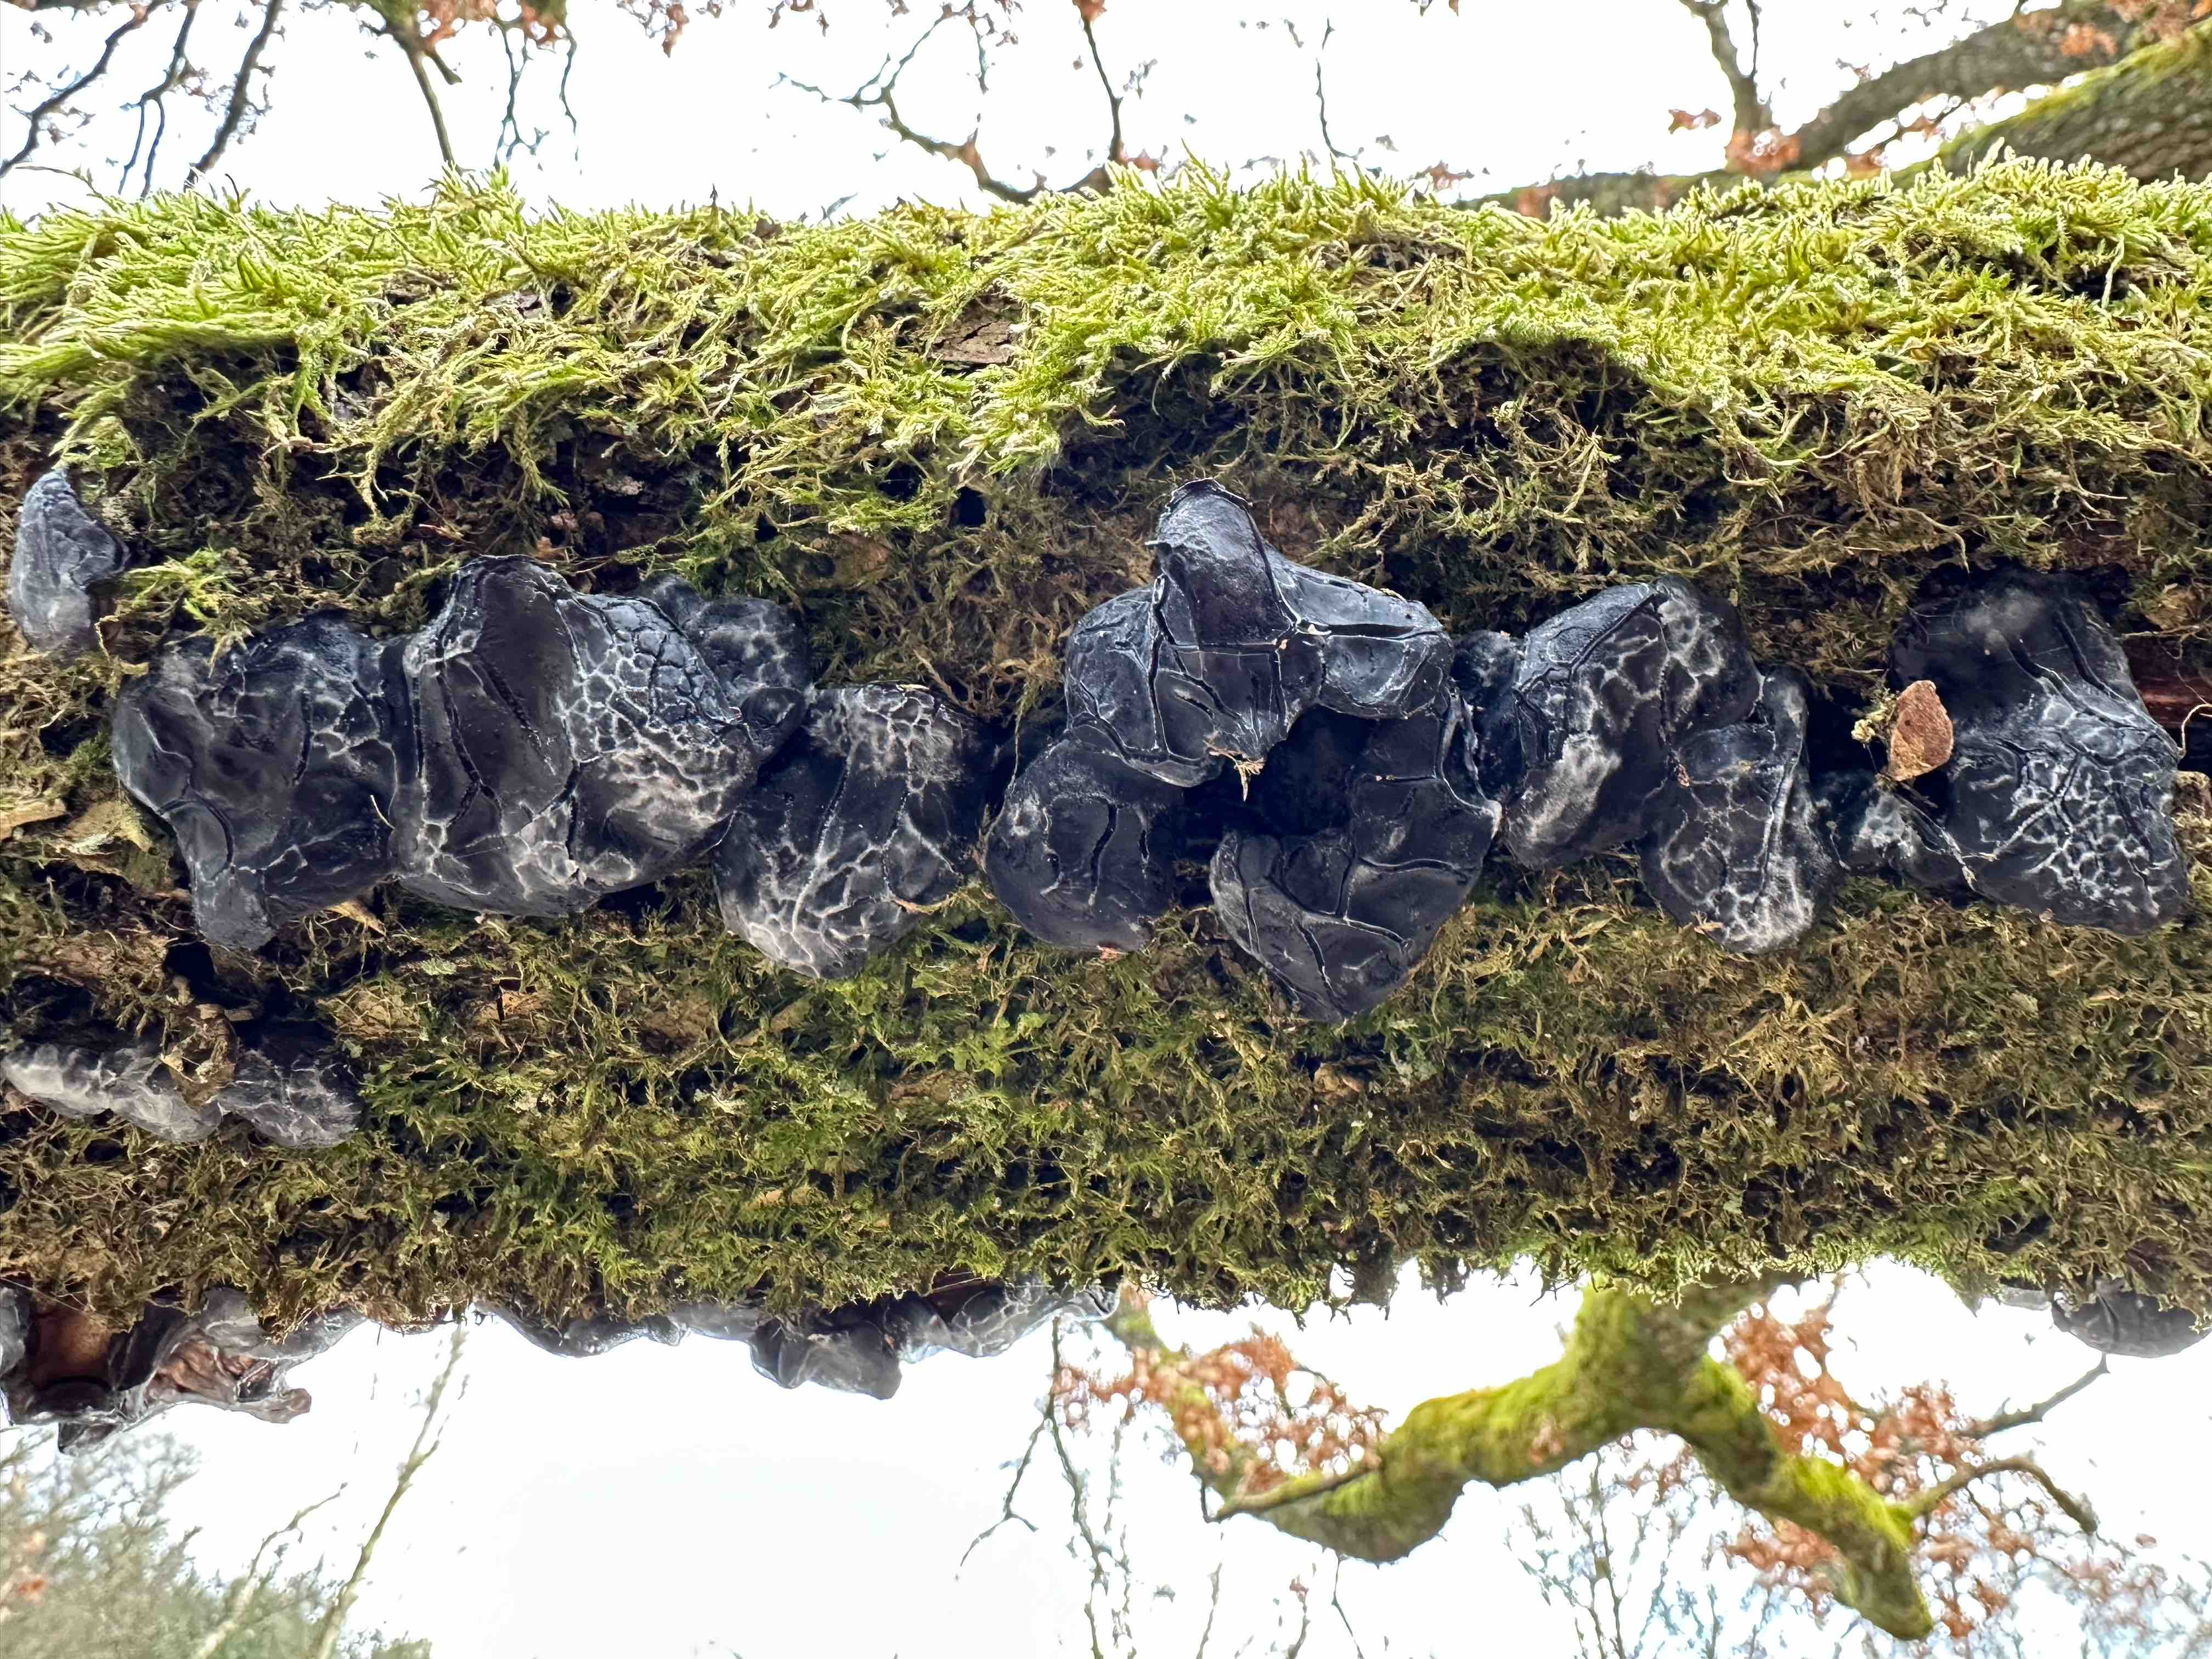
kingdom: Fungi
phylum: Basidiomycota
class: Agaricomycetes
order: Auriculariales
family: Auriculariaceae
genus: Exidia
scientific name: Exidia glandulosa
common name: ege-bævretop
